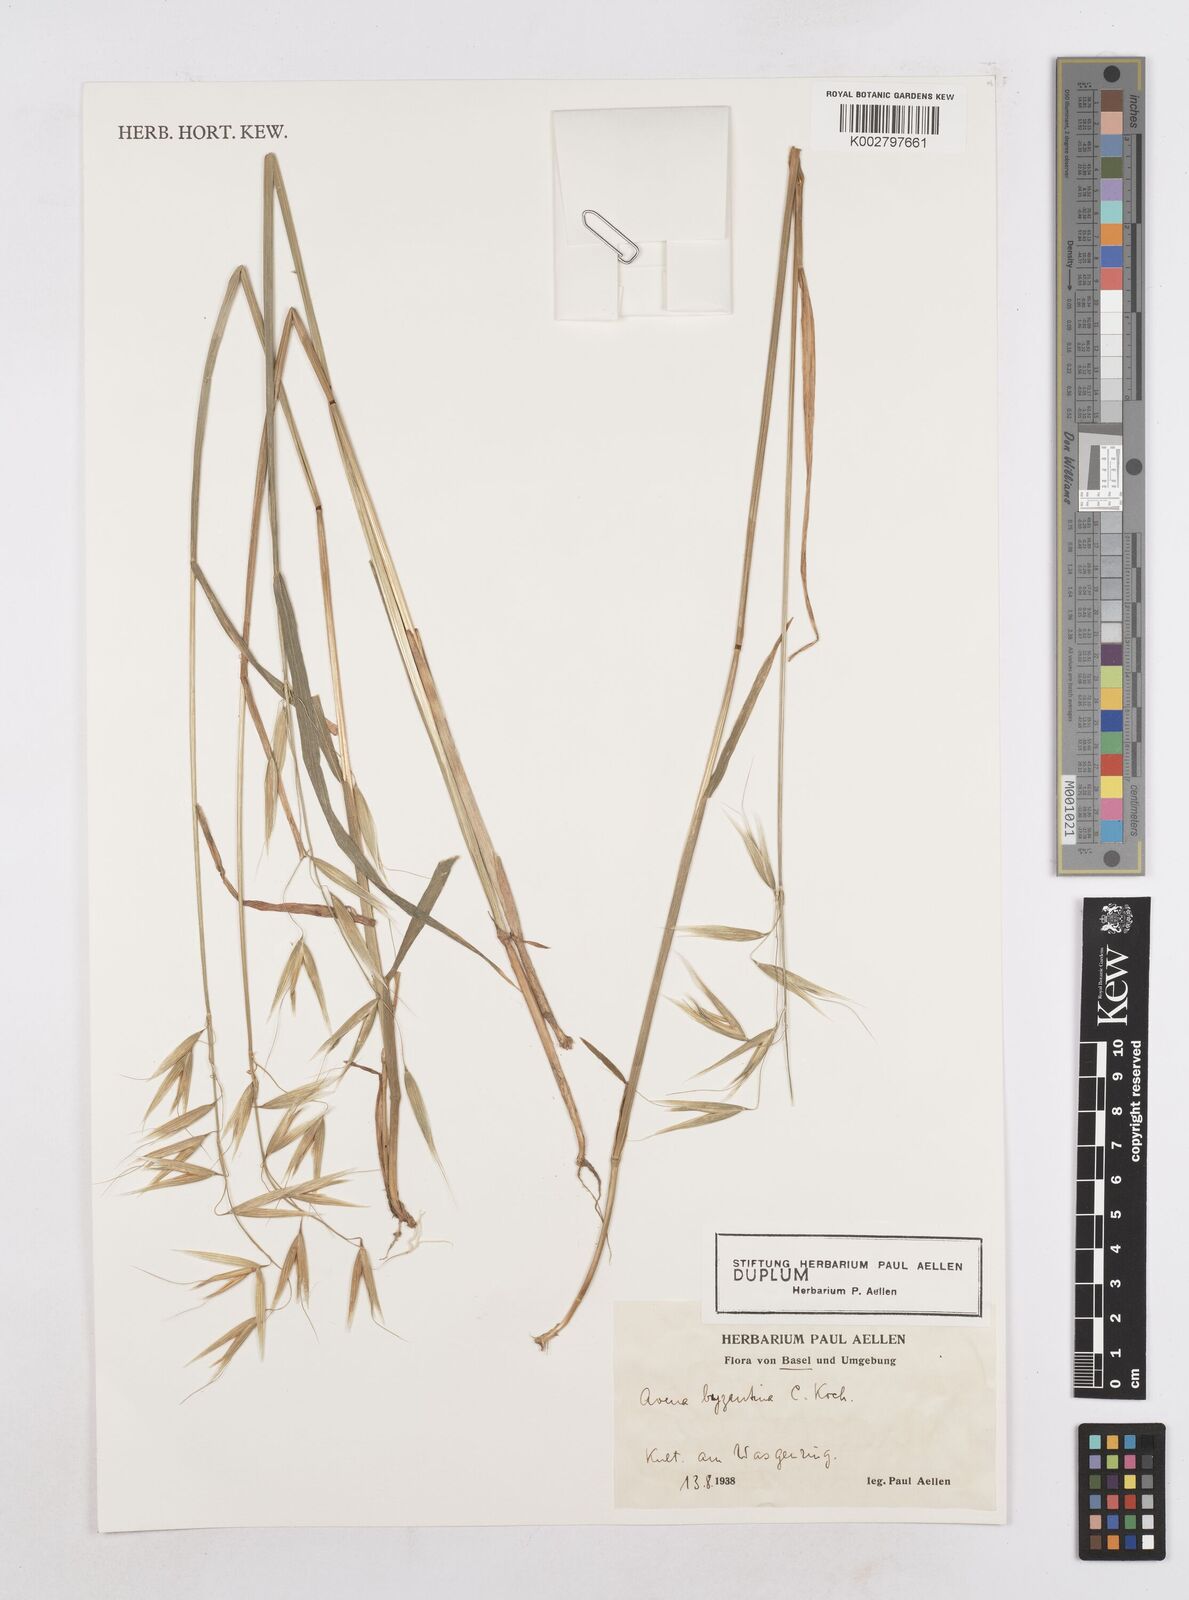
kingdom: Plantae
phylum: Tracheophyta
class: Liliopsida
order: Poales
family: Poaceae
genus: Avena
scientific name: Avena byzantina
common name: Algerian oat
